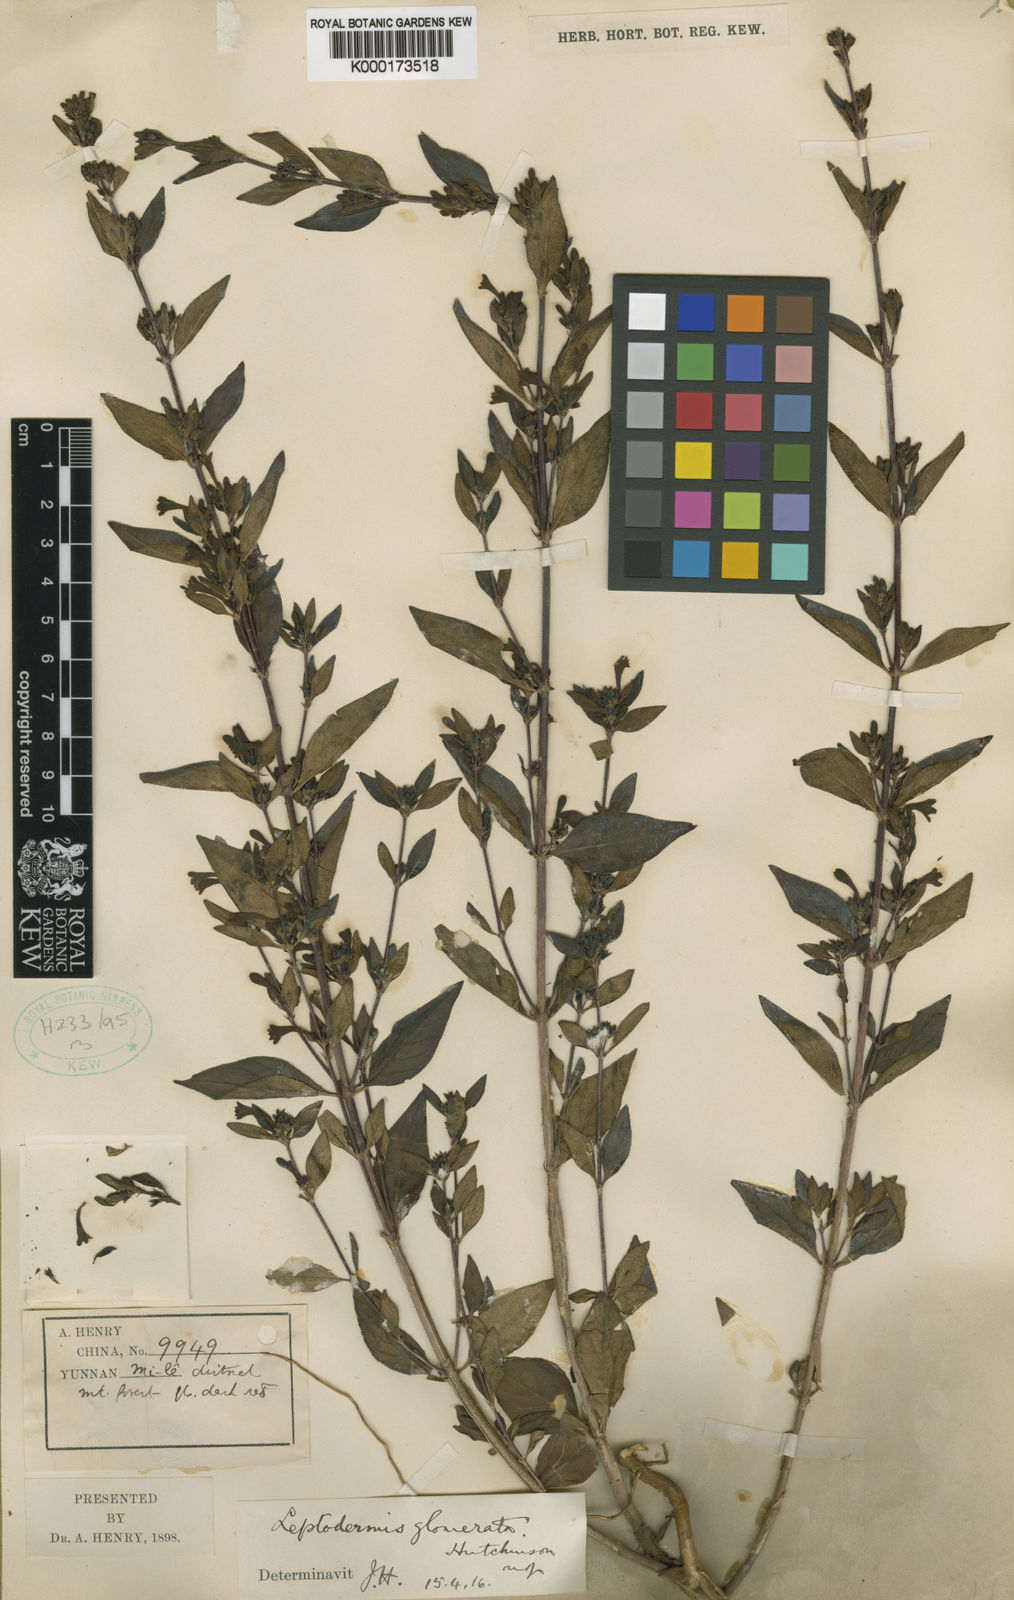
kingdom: Plantae
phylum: Tracheophyta
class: Magnoliopsida
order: Gentianales
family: Rubiaceae
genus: Leptodermis
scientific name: Leptodermis glomerata
